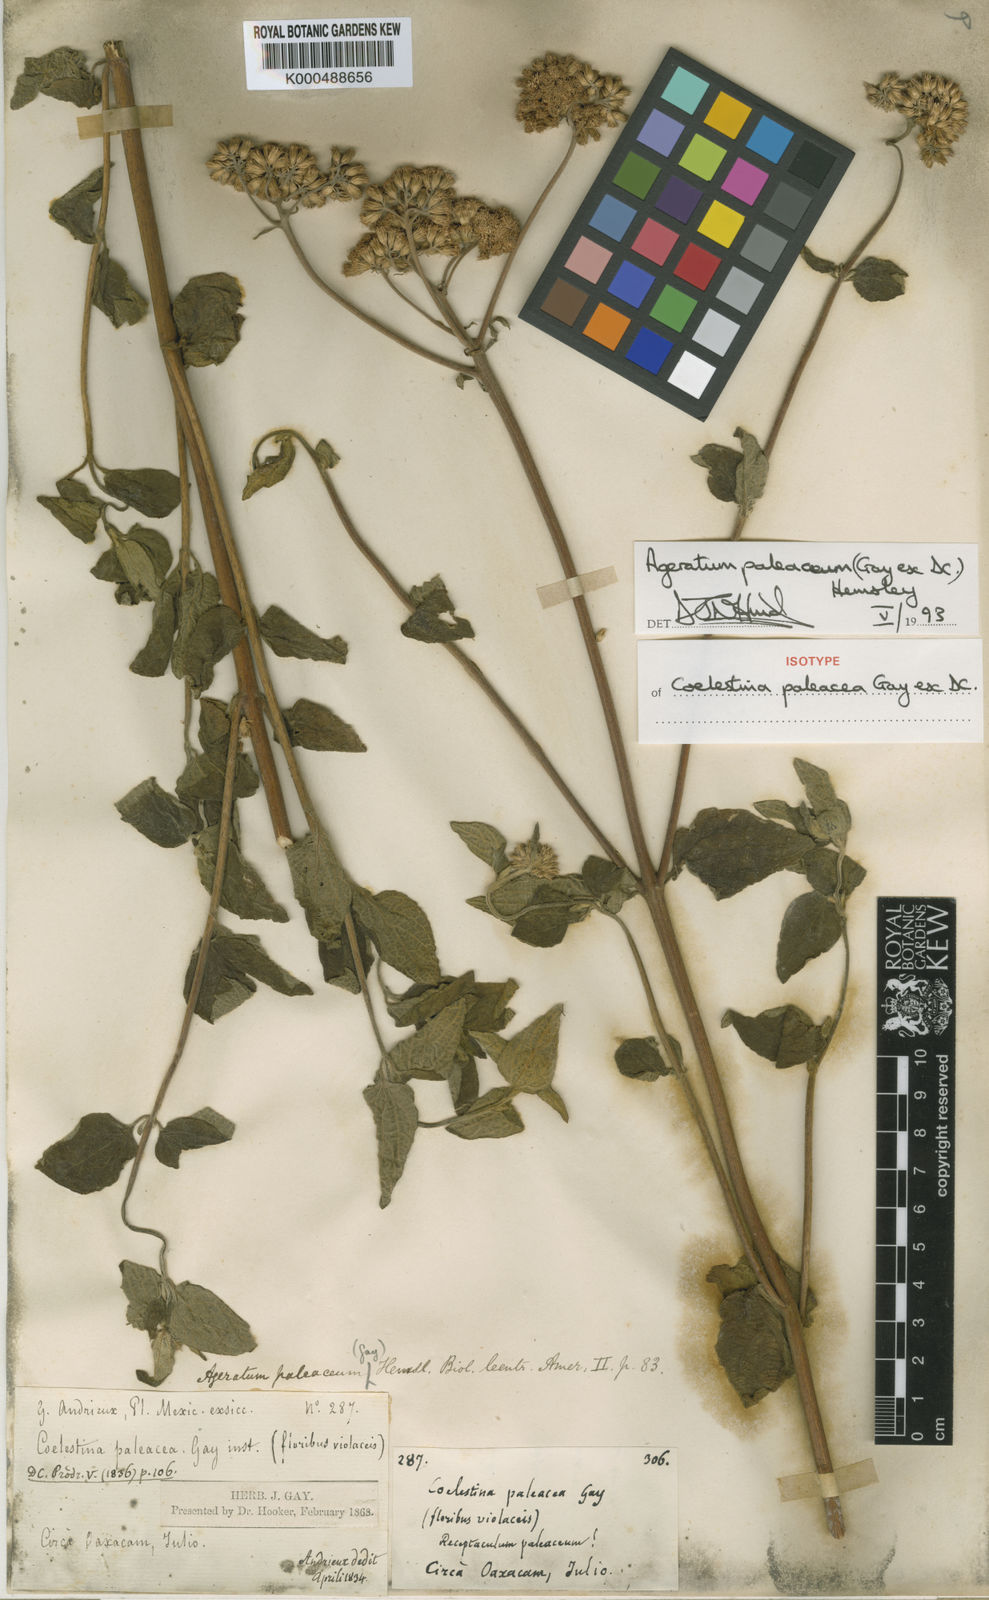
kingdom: Plantae
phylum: Tracheophyta
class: Magnoliopsida
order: Asterales
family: Asteraceae
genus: Ageratum
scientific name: Ageratum paleaceum
